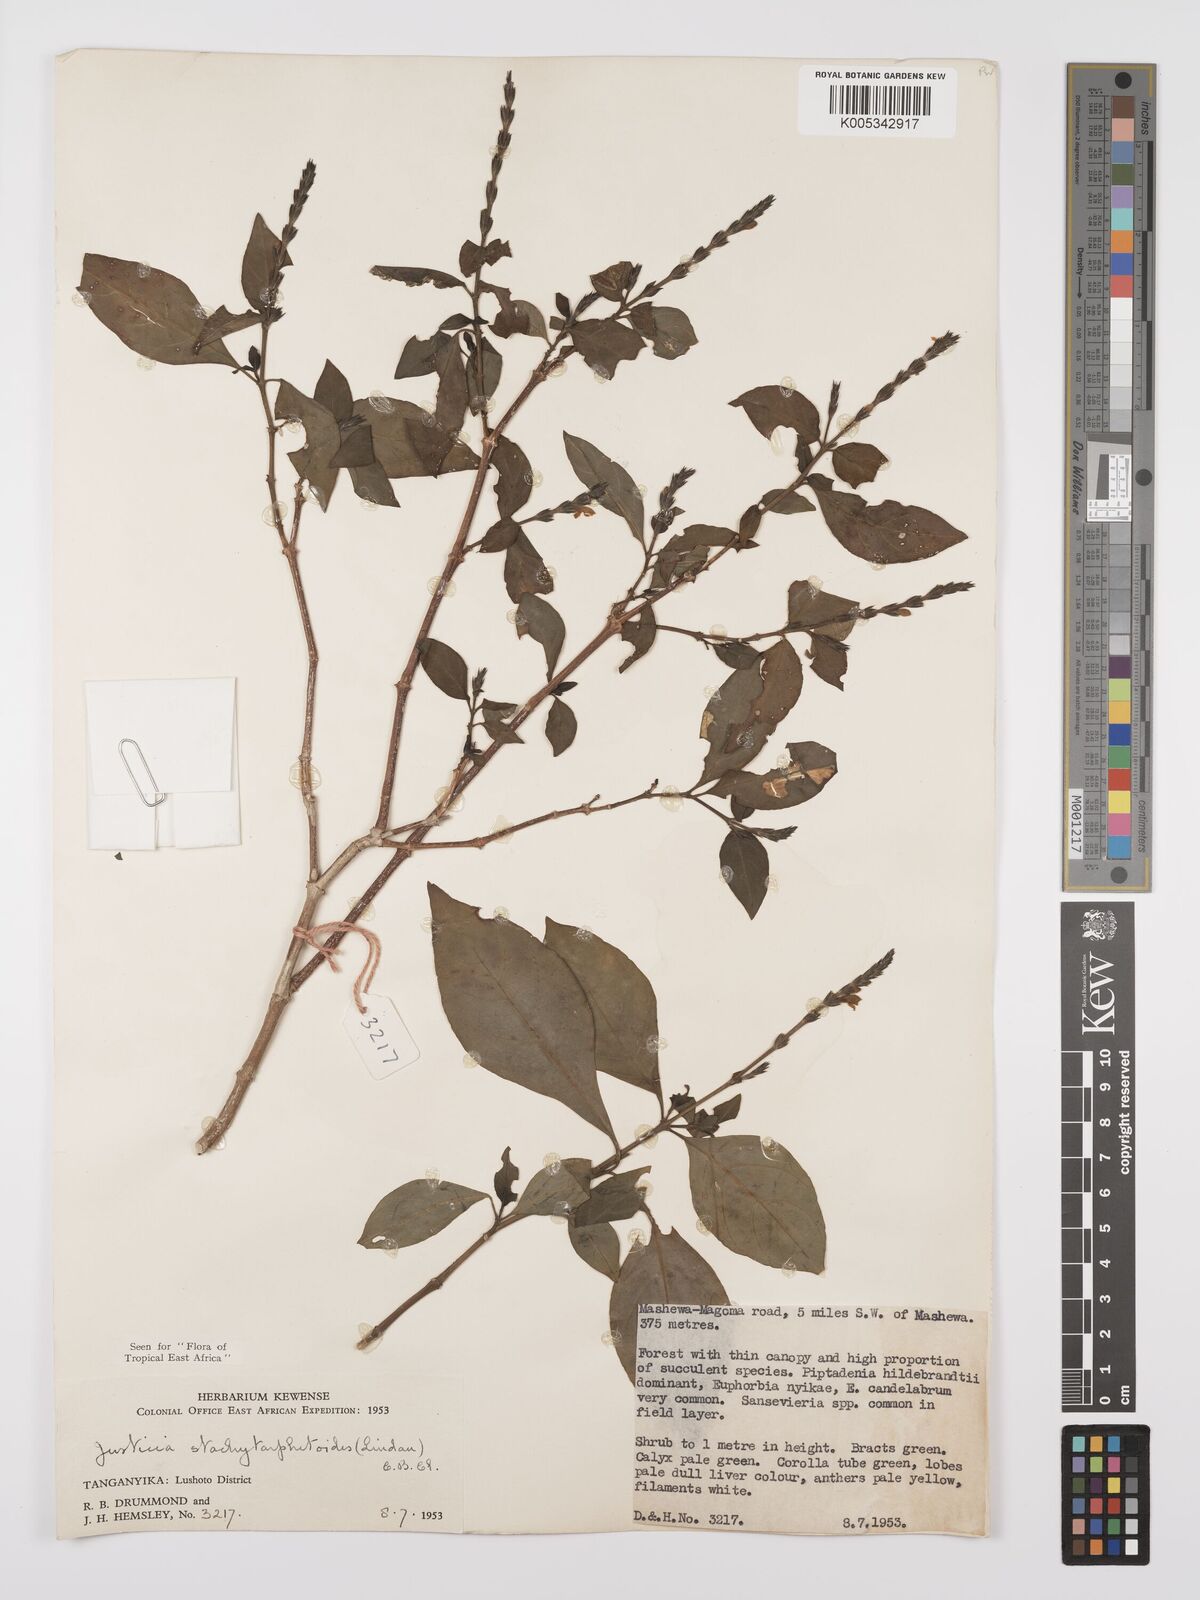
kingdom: Plantae
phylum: Tracheophyta
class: Magnoliopsida
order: Lamiales
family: Acanthaceae
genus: Justicia
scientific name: Justicia stachytarphetoides
